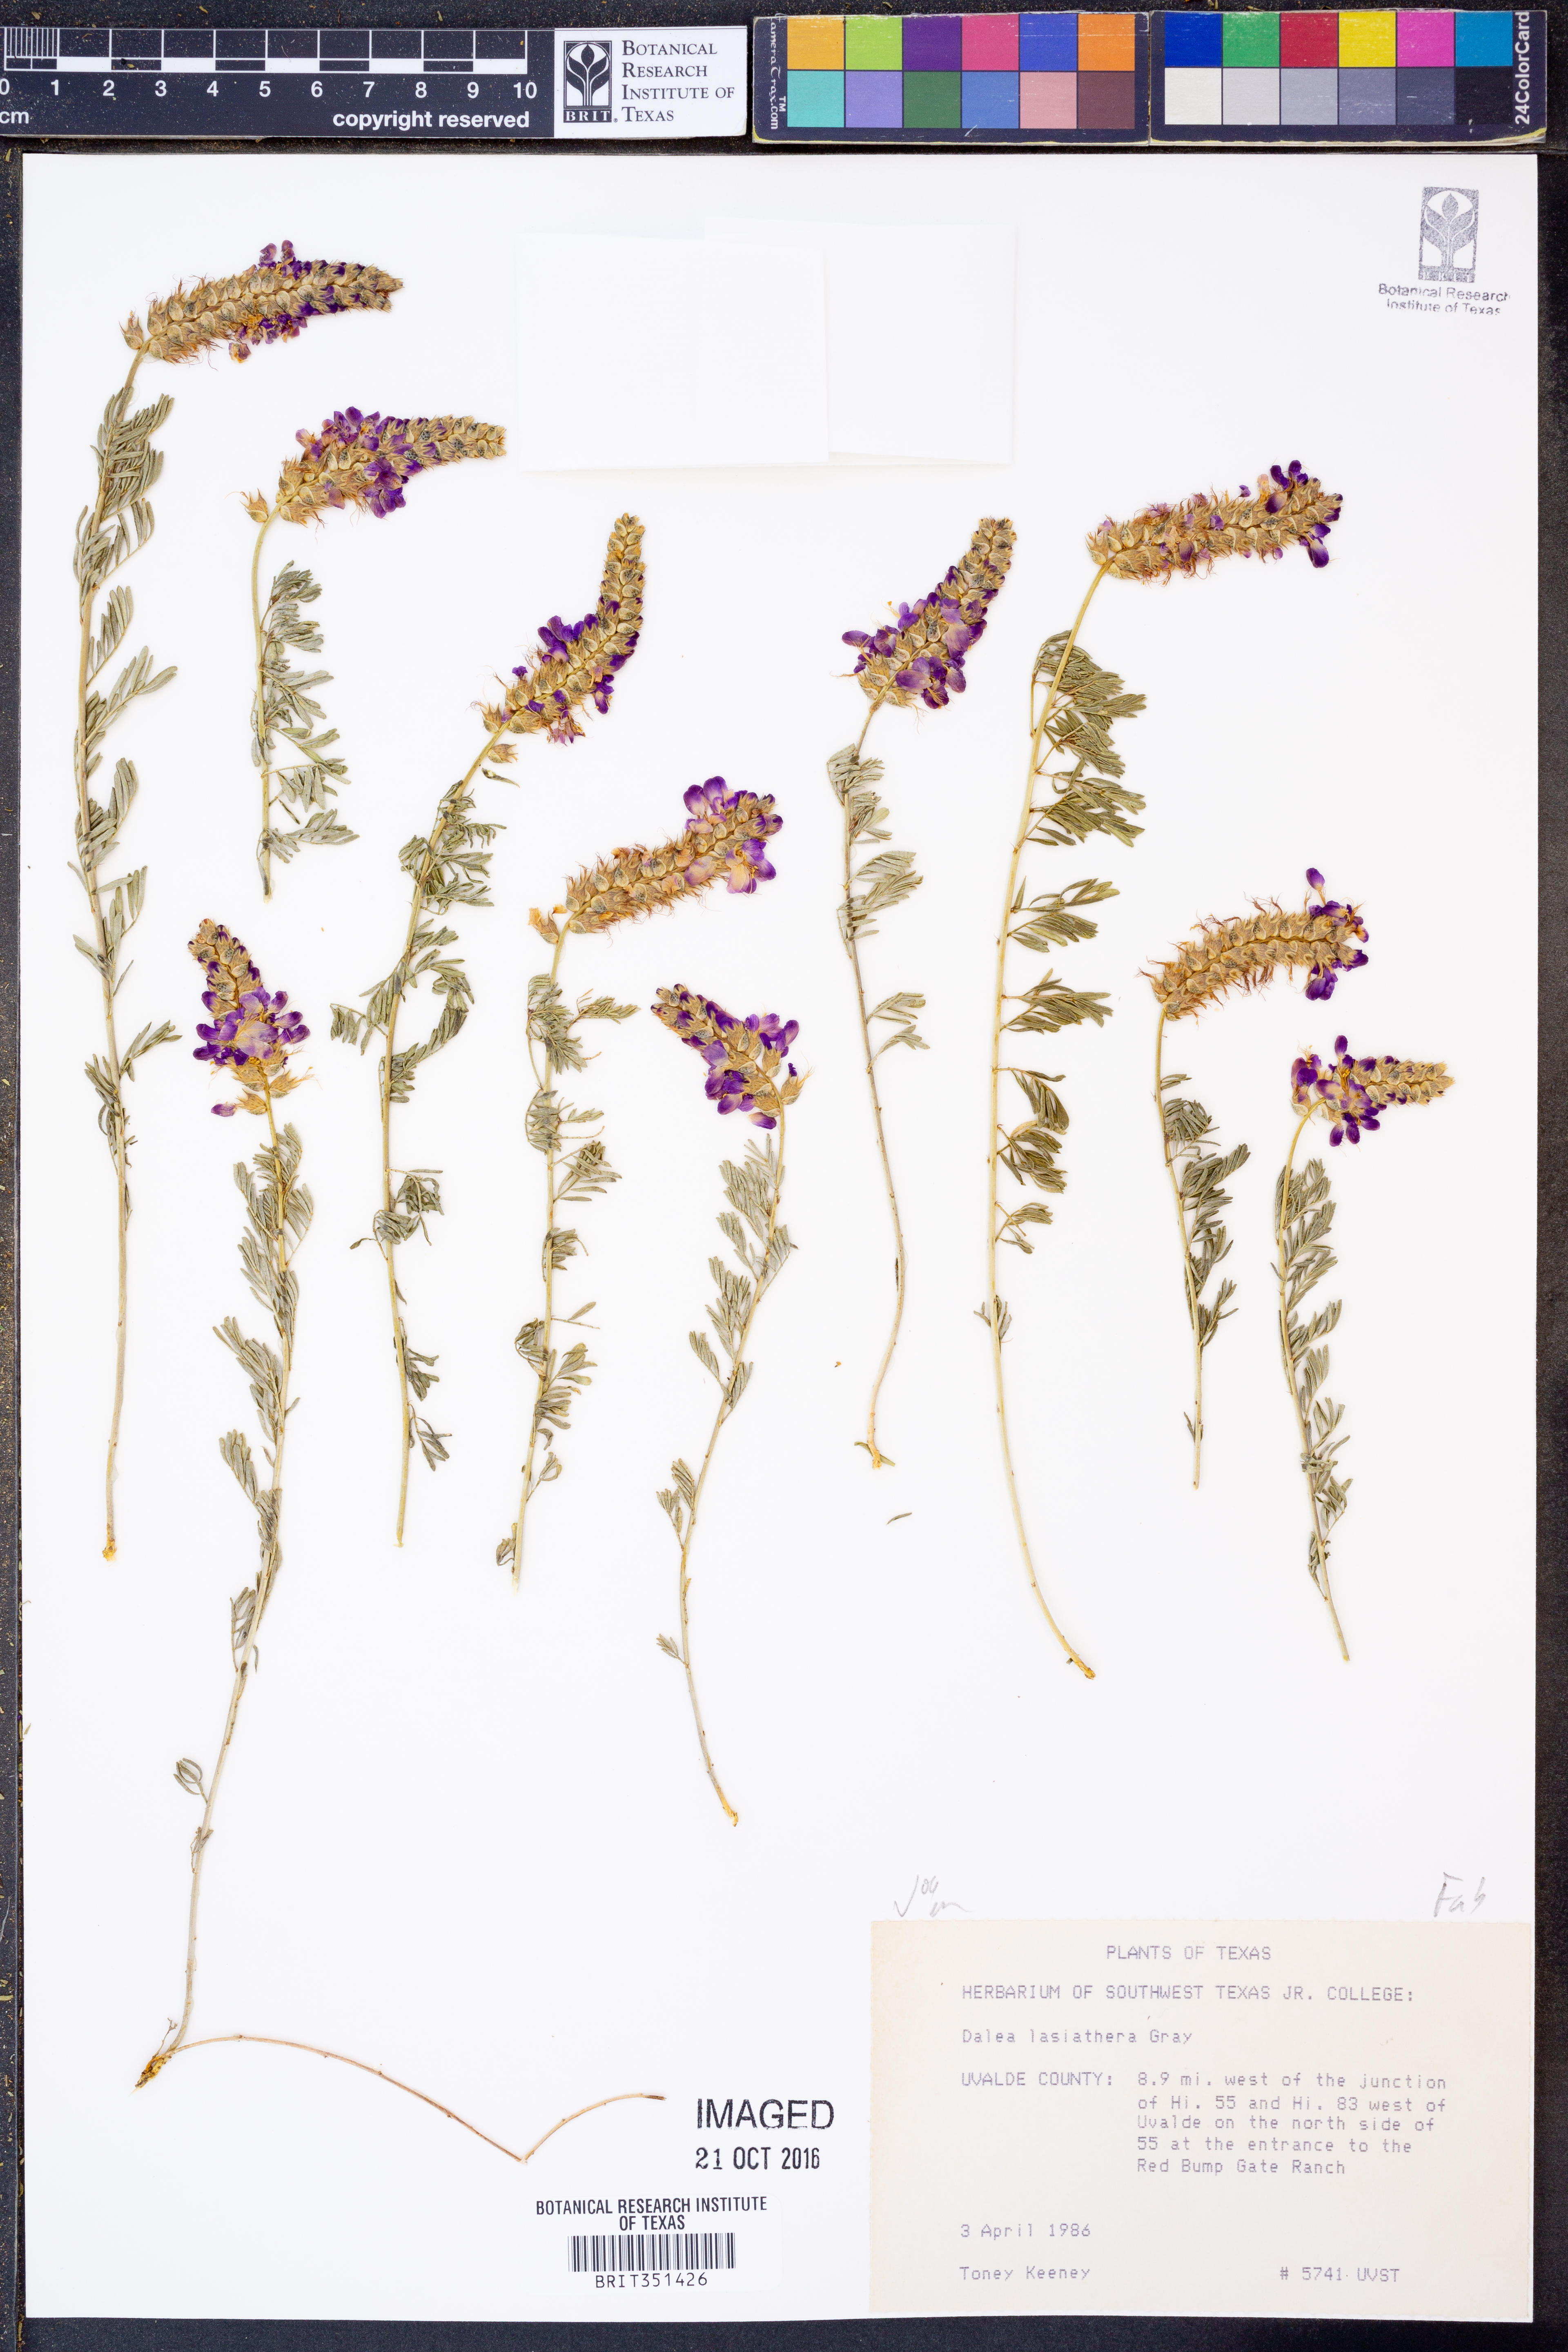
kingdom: Plantae
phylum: Tracheophyta
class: Magnoliopsida
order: Fabales
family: Fabaceae
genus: Dalea
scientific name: Dalea lasiathera
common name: Purple prairie-clover
